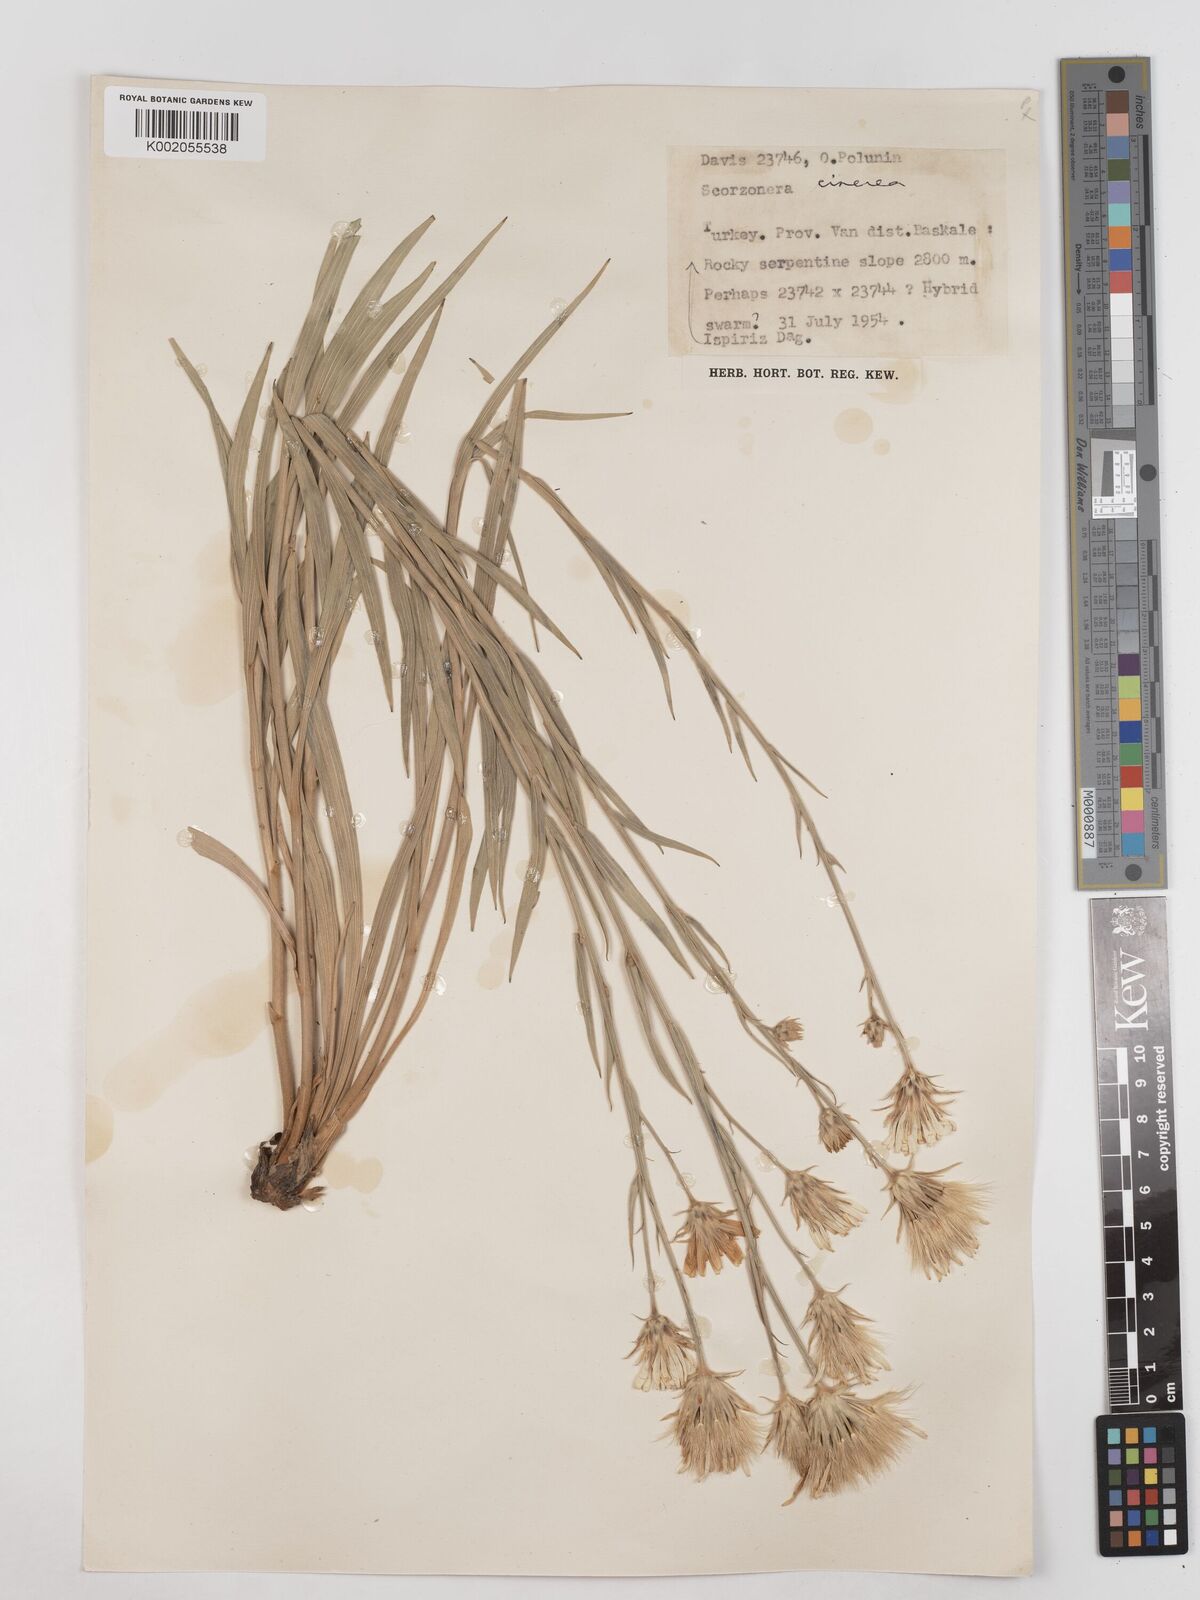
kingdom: Plantae
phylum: Tracheophyta
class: Magnoliopsida
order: Asterales
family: Asteraceae
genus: Cigdemia
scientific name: Cigdemia cinerea
